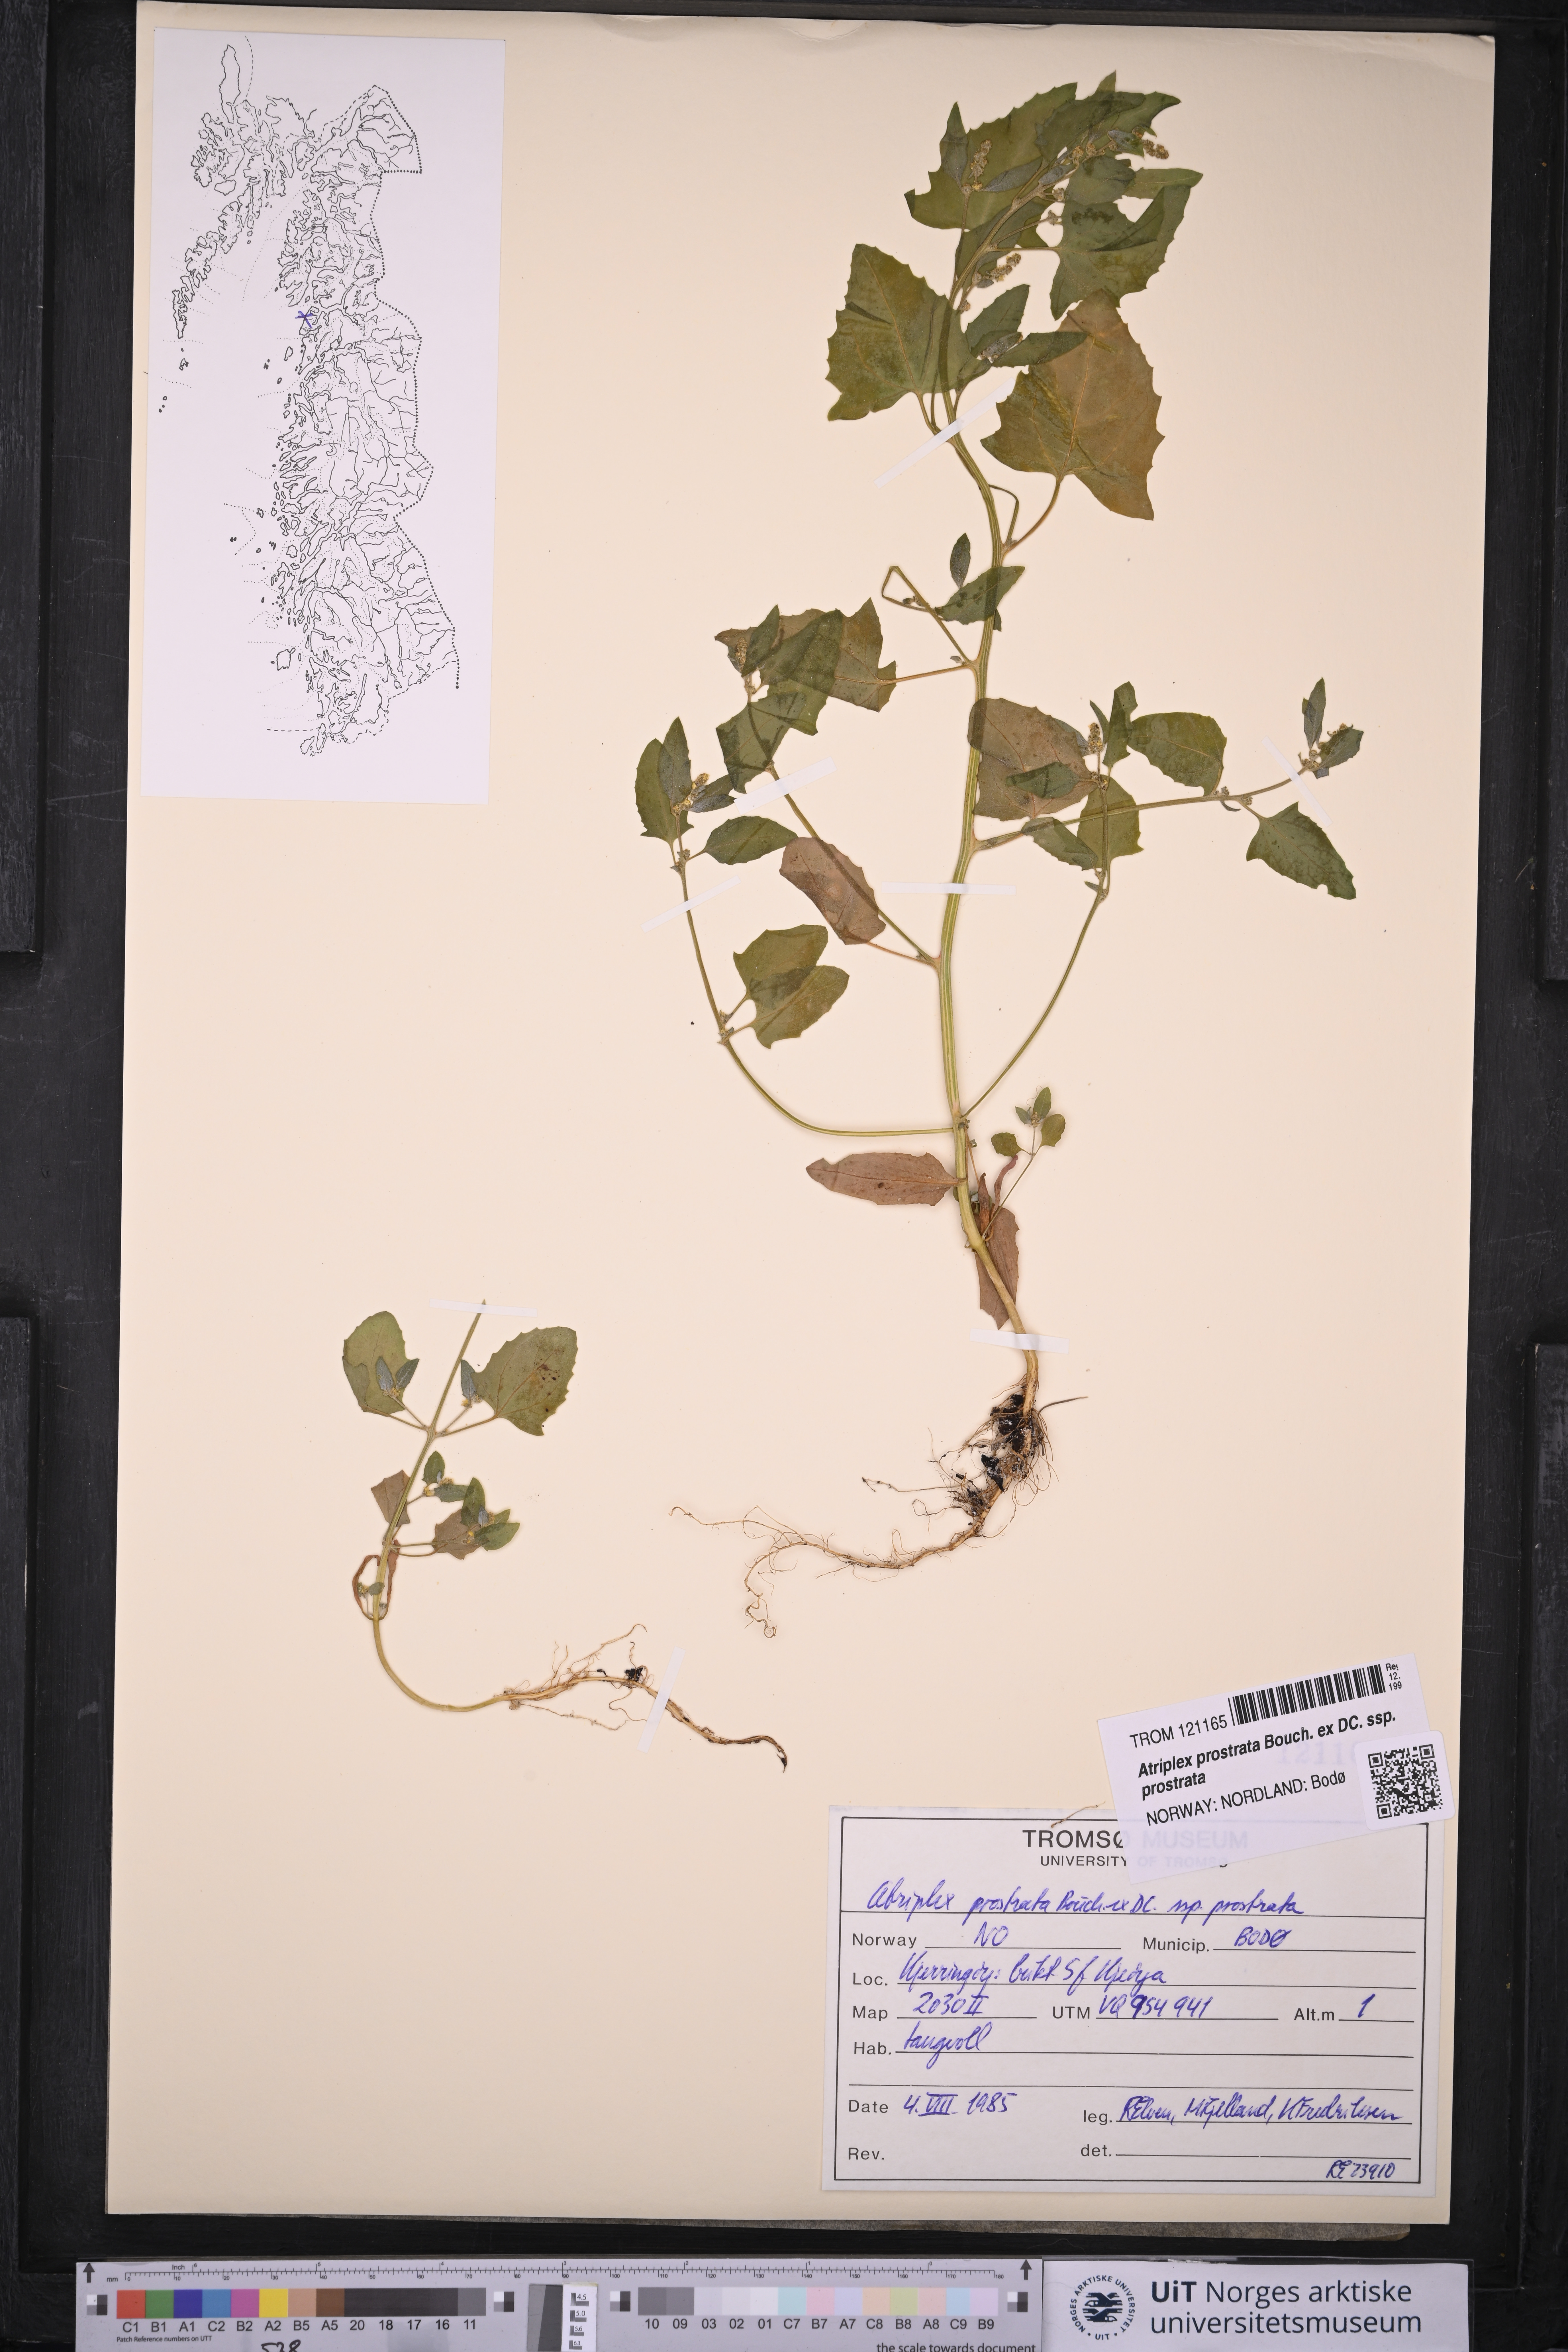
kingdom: Plantae
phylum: Tracheophyta
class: Magnoliopsida
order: Caryophyllales
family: Amaranthaceae
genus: Atriplex
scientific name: Atriplex prostrata
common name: Spear-leaved orache
